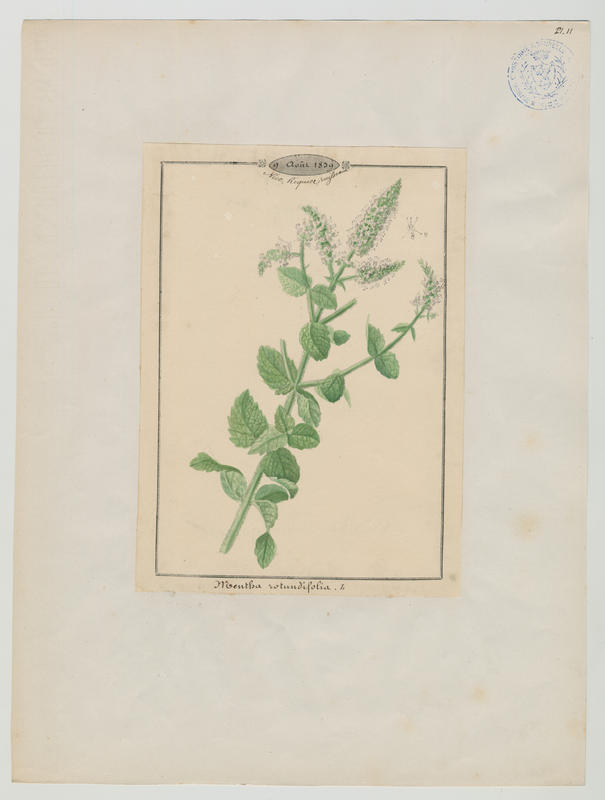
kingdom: Plantae
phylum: Tracheophyta
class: Magnoliopsida
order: Lamiales
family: Lamiaceae
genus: Mentha
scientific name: Mentha rotundifolia
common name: Bigleaf mint
